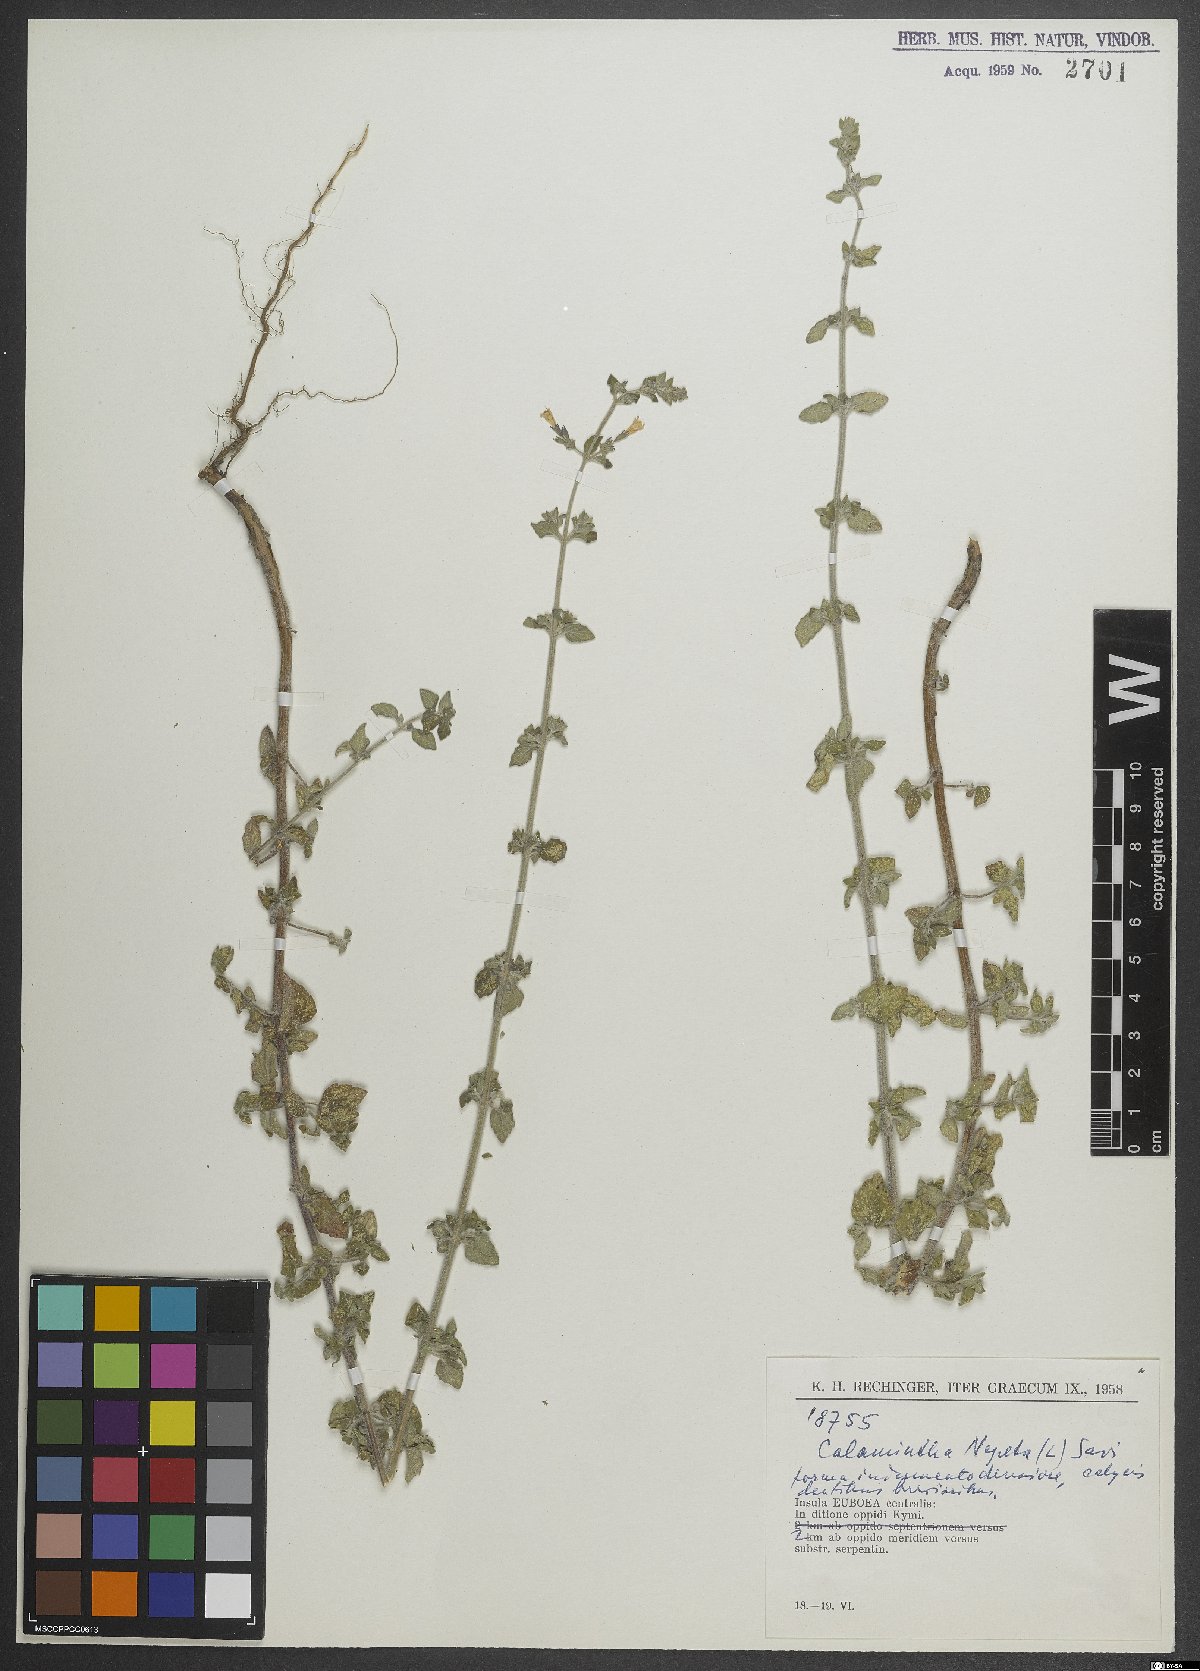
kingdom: Plantae
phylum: Tracheophyta
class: Magnoliopsida
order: Lamiales
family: Lamiaceae
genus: Clinopodium
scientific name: Clinopodium nepeta
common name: Lesser calamint
